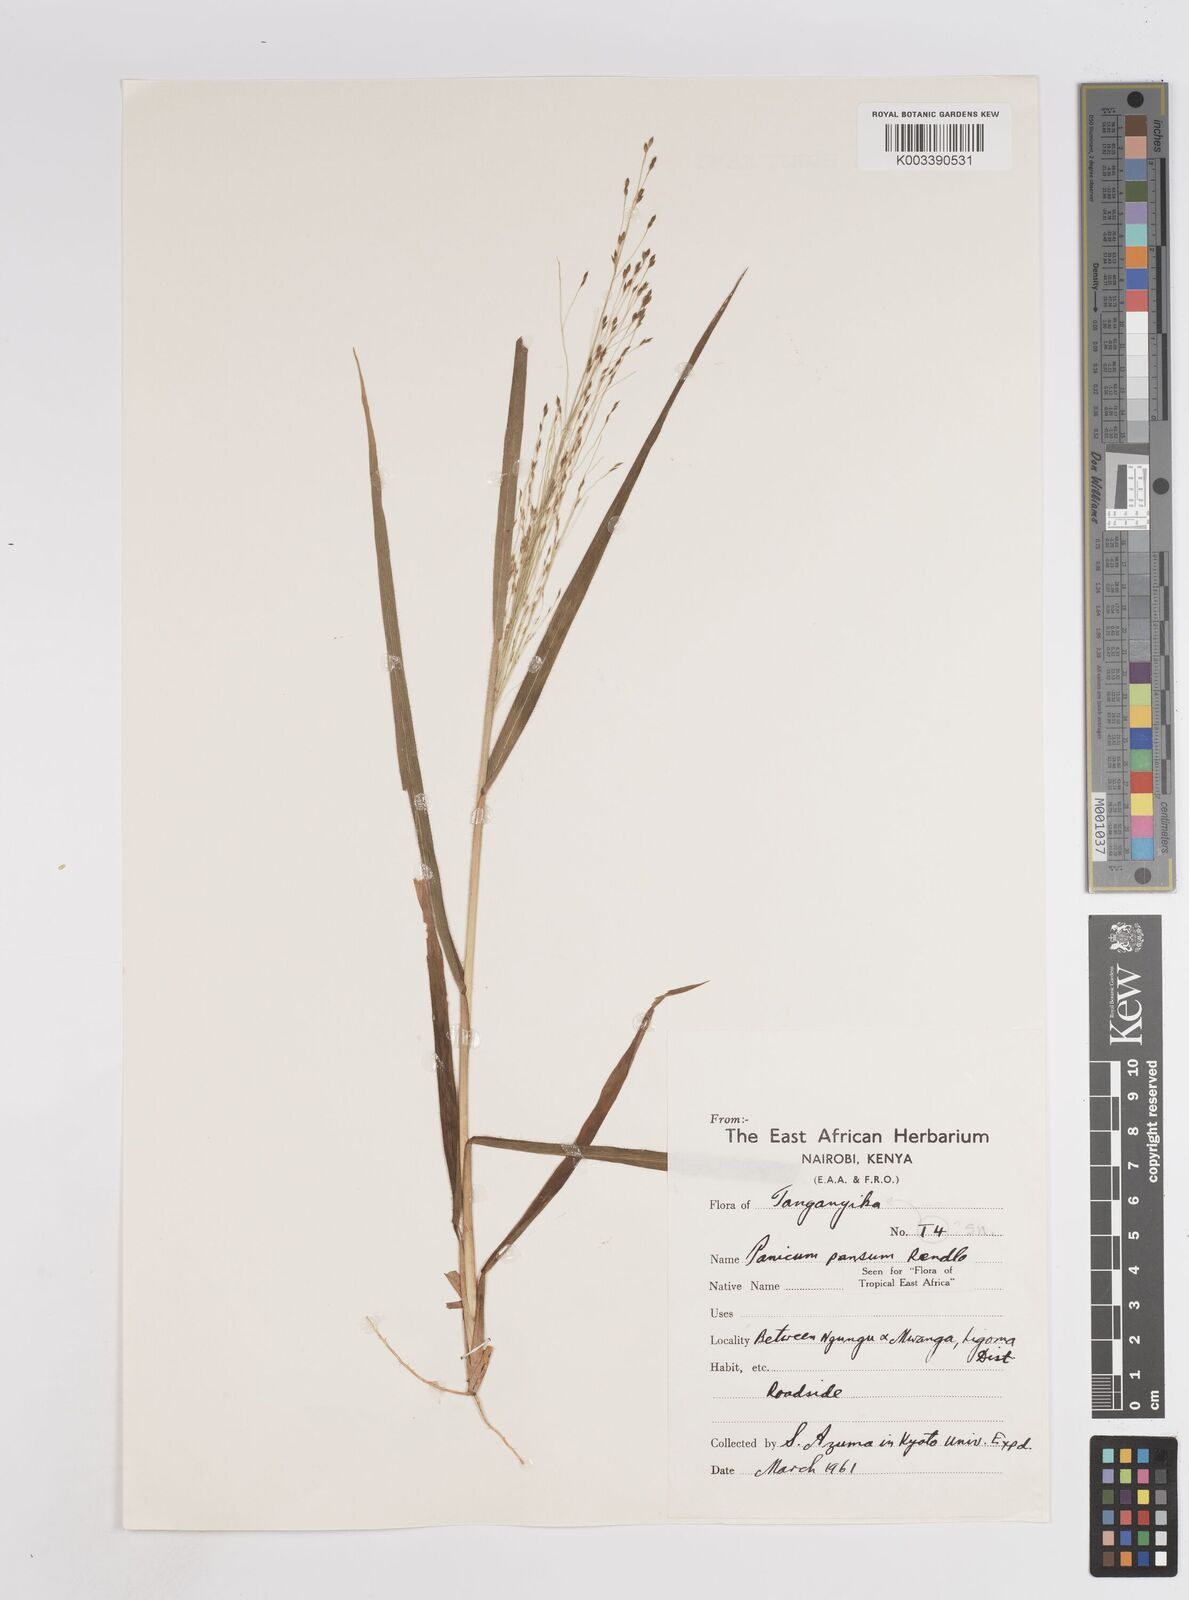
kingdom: Plantae
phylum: Tracheophyta
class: Liliopsida
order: Poales
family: Poaceae
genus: Panicum
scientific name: Panicum pansum
